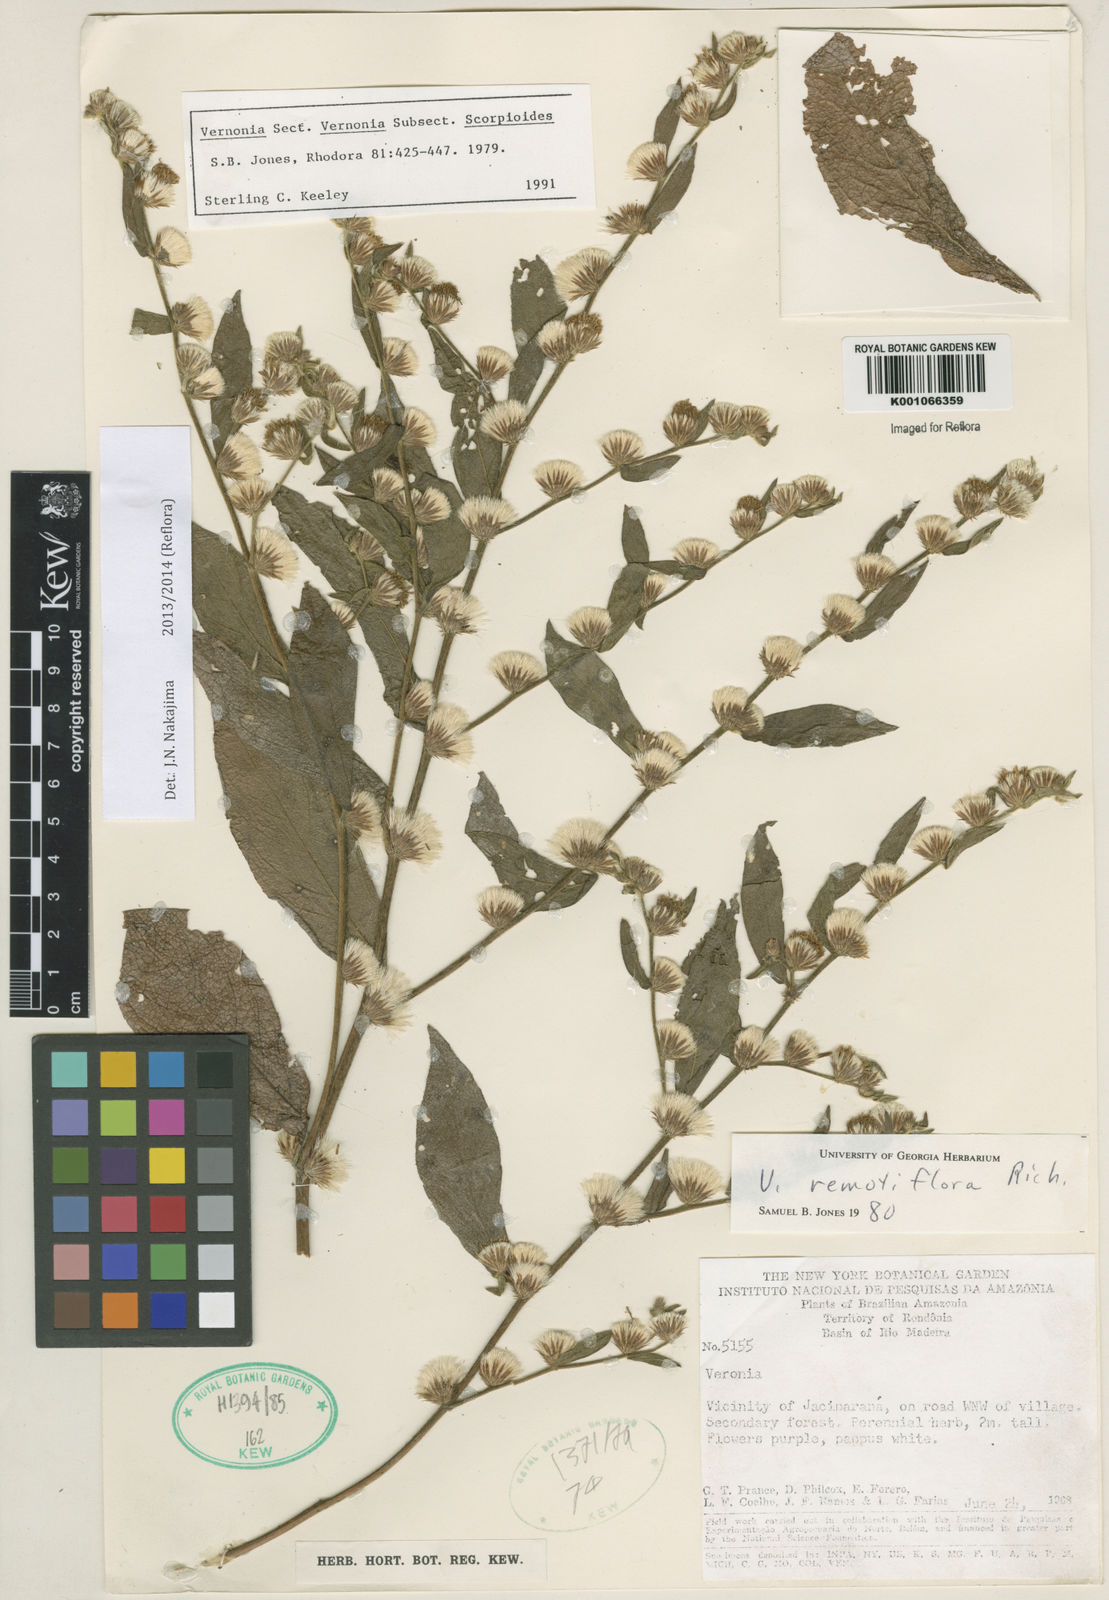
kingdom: Plantae
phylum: Tracheophyta
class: Magnoliopsida
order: Asterales
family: Asteraceae
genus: Lepidaploa
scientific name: Lepidaploa salzmannii
